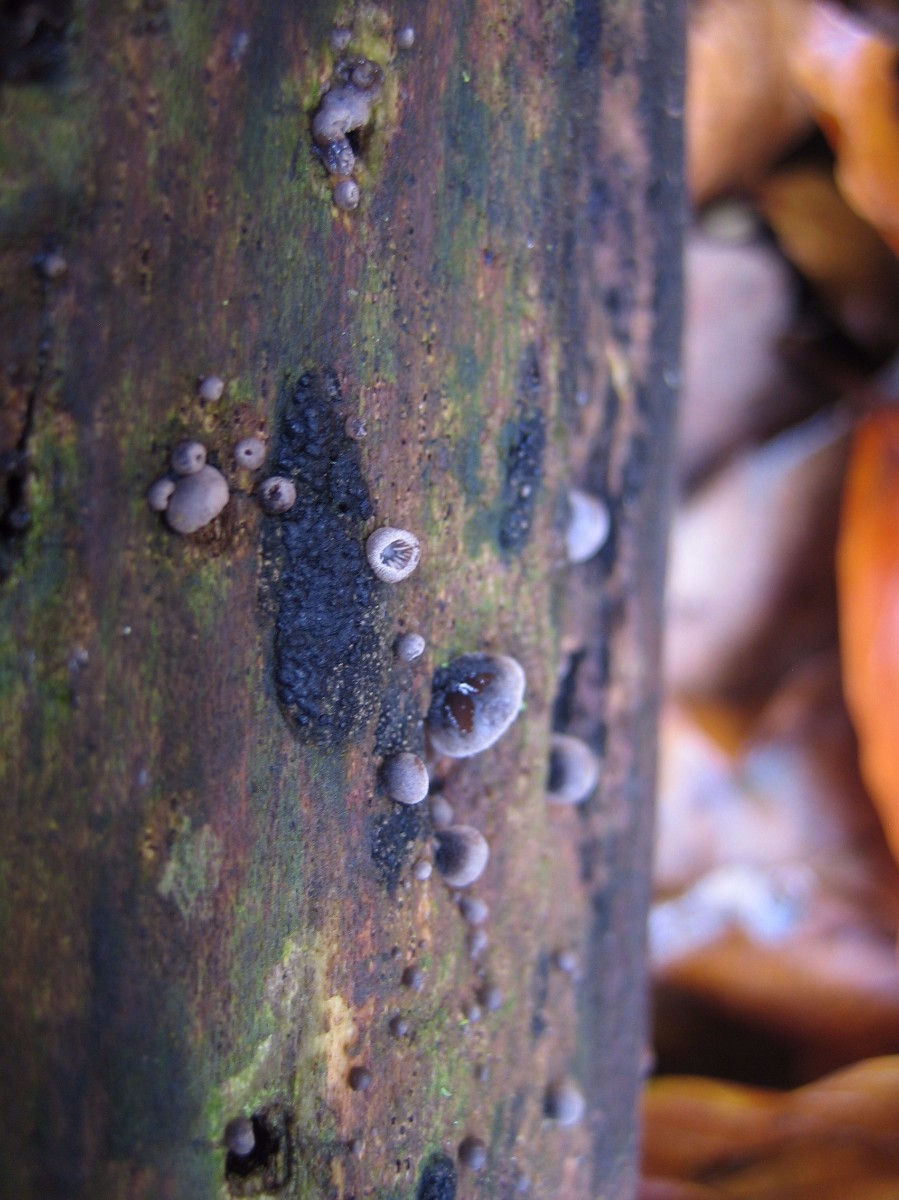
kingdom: Fungi
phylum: Basidiomycota
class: Agaricomycetes
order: Agaricales
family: Pleurotaceae
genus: Resupinatus
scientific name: Resupinatus trichotis
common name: mørkfiltet barkhat
